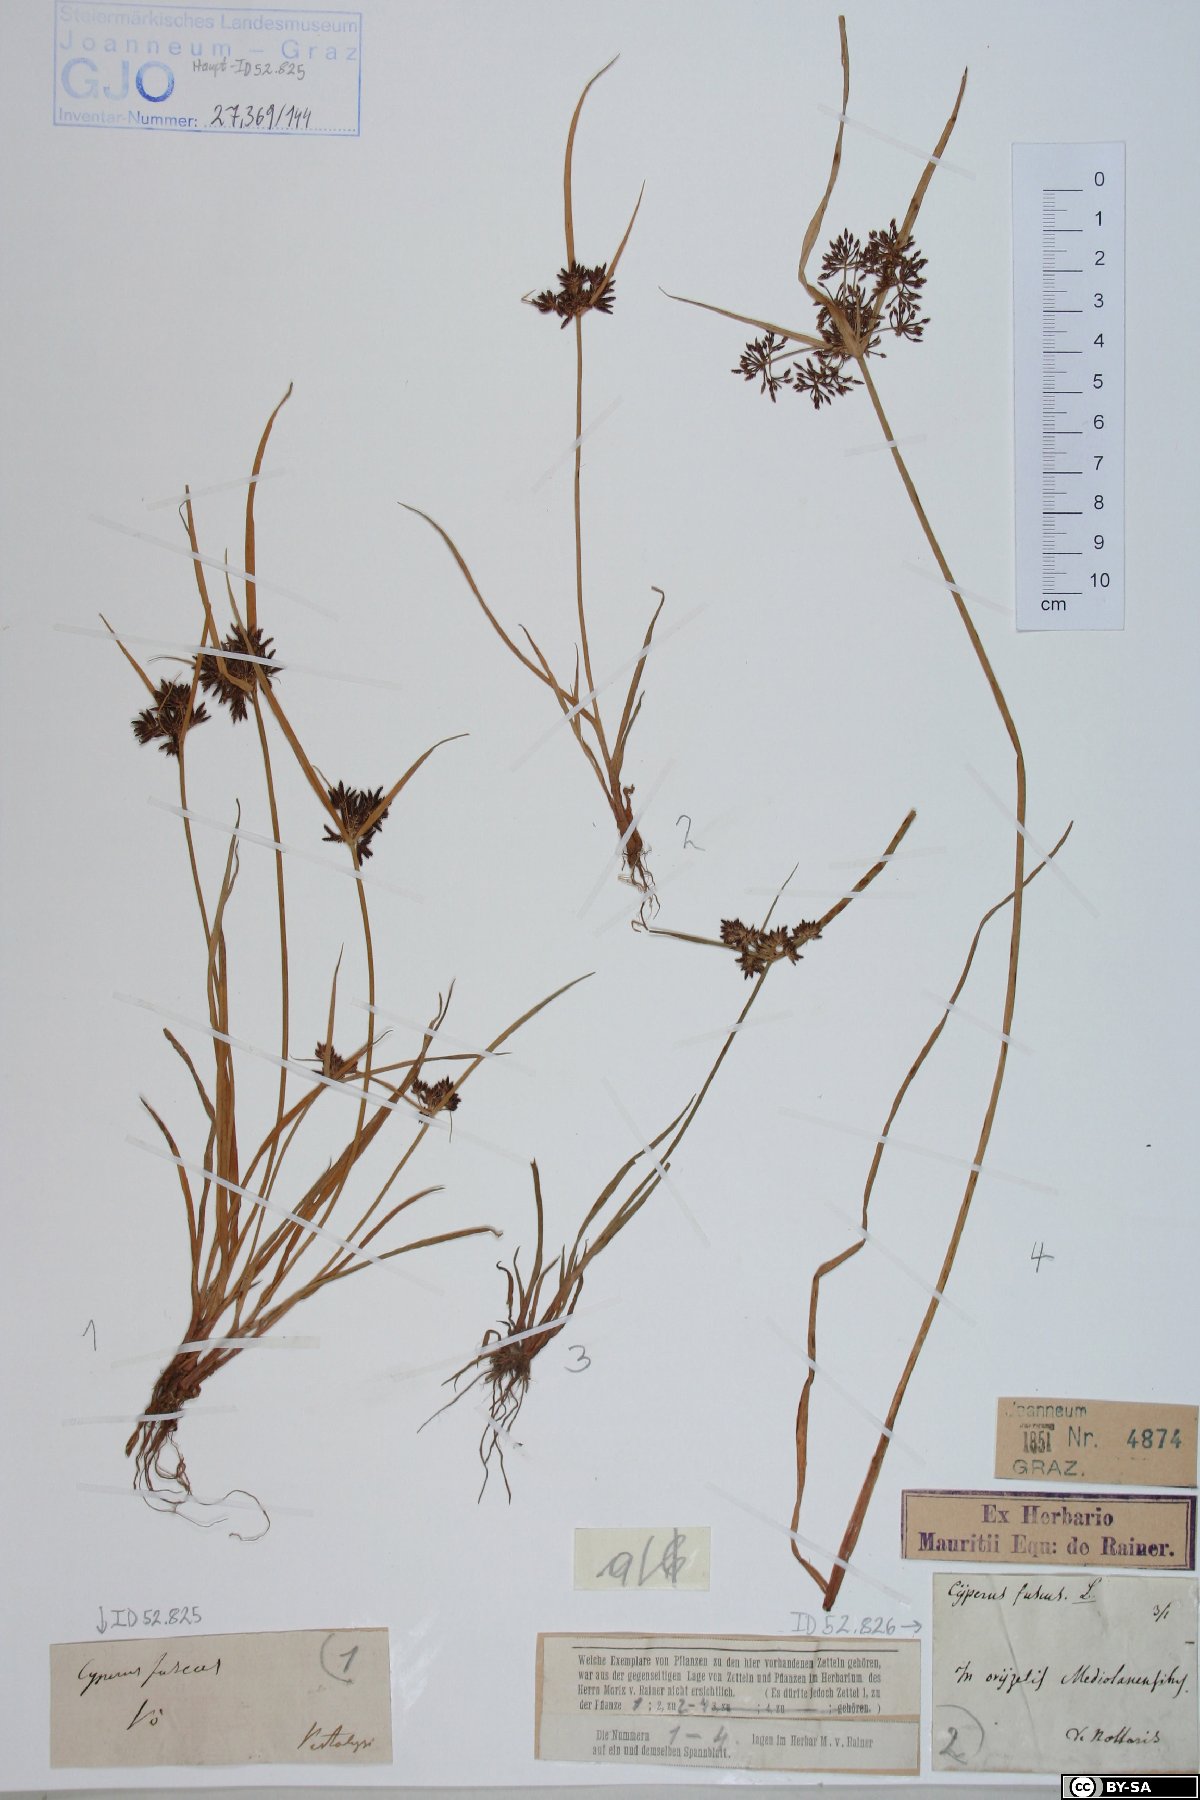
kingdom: Plantae
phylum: Tracheophyta
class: Liliopsida
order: Poales
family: Cyperaceae
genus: Cyperus
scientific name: Cyperus fuscus
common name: Brown galingale
